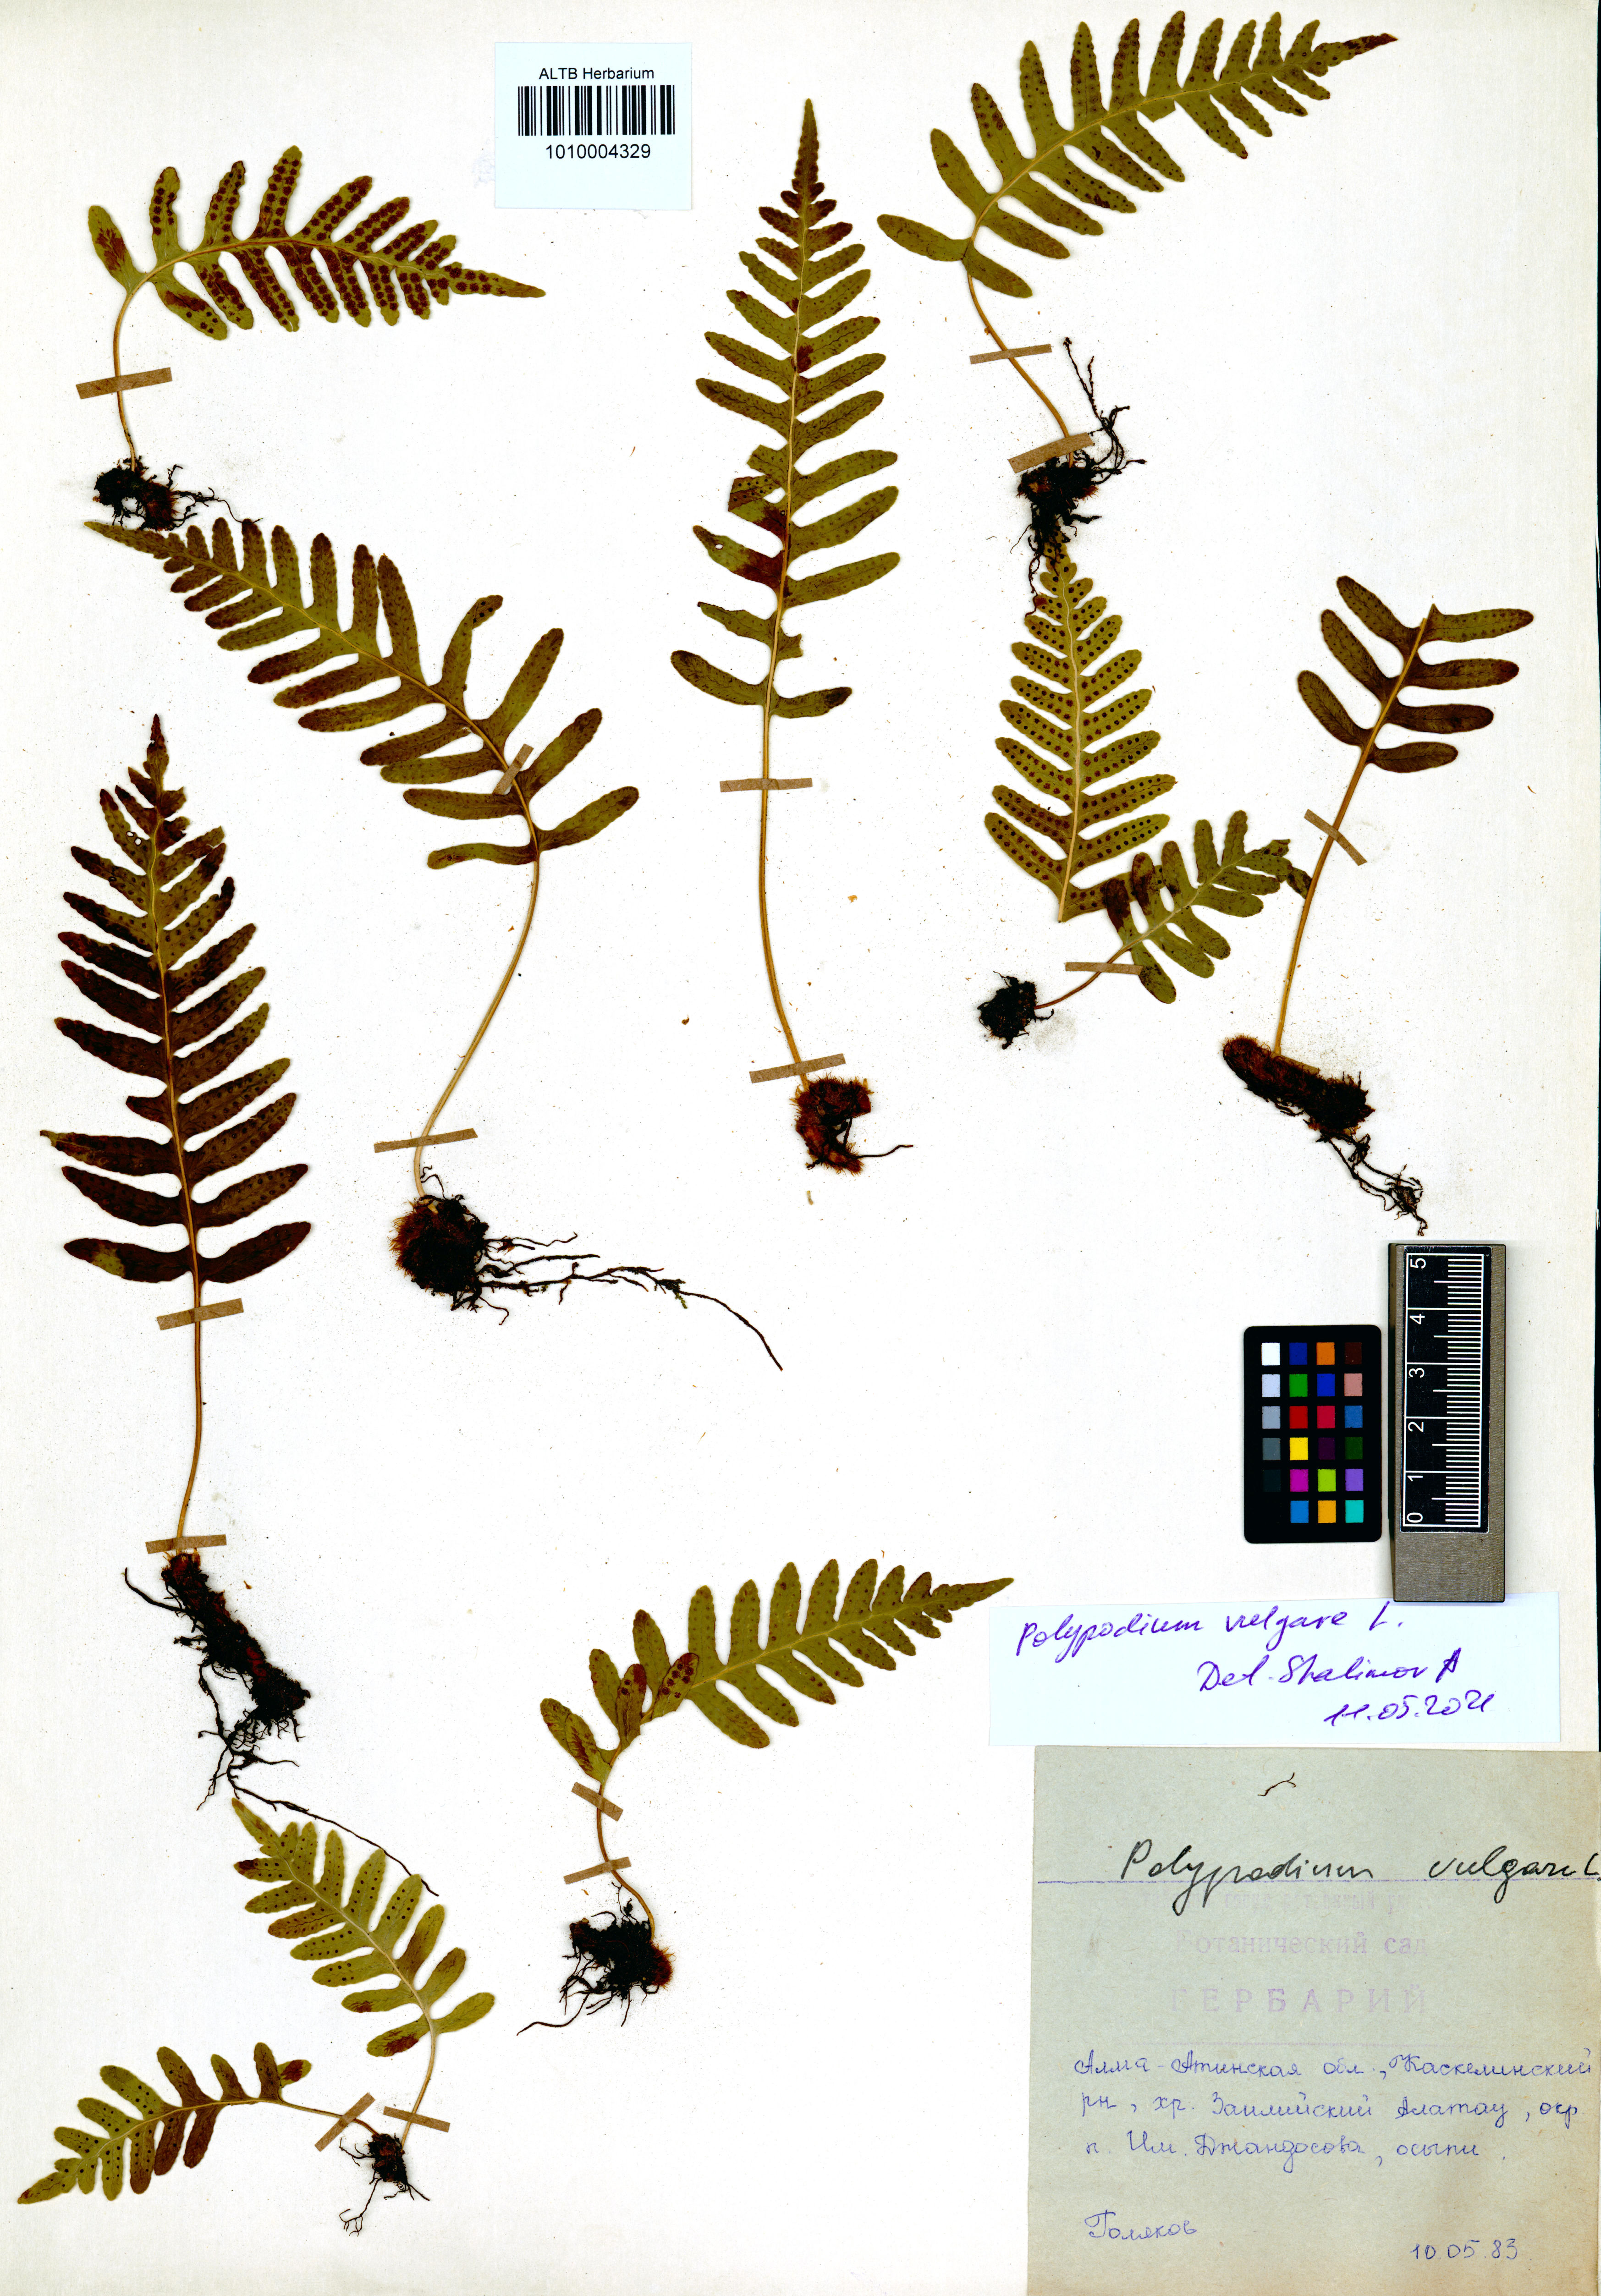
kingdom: Plantae
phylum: Tracheophyta
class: Polypodiopsida
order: Polypodiales
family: Polypodiaceae
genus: Polypodium
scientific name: Polypodium vulgare
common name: Common polypody
